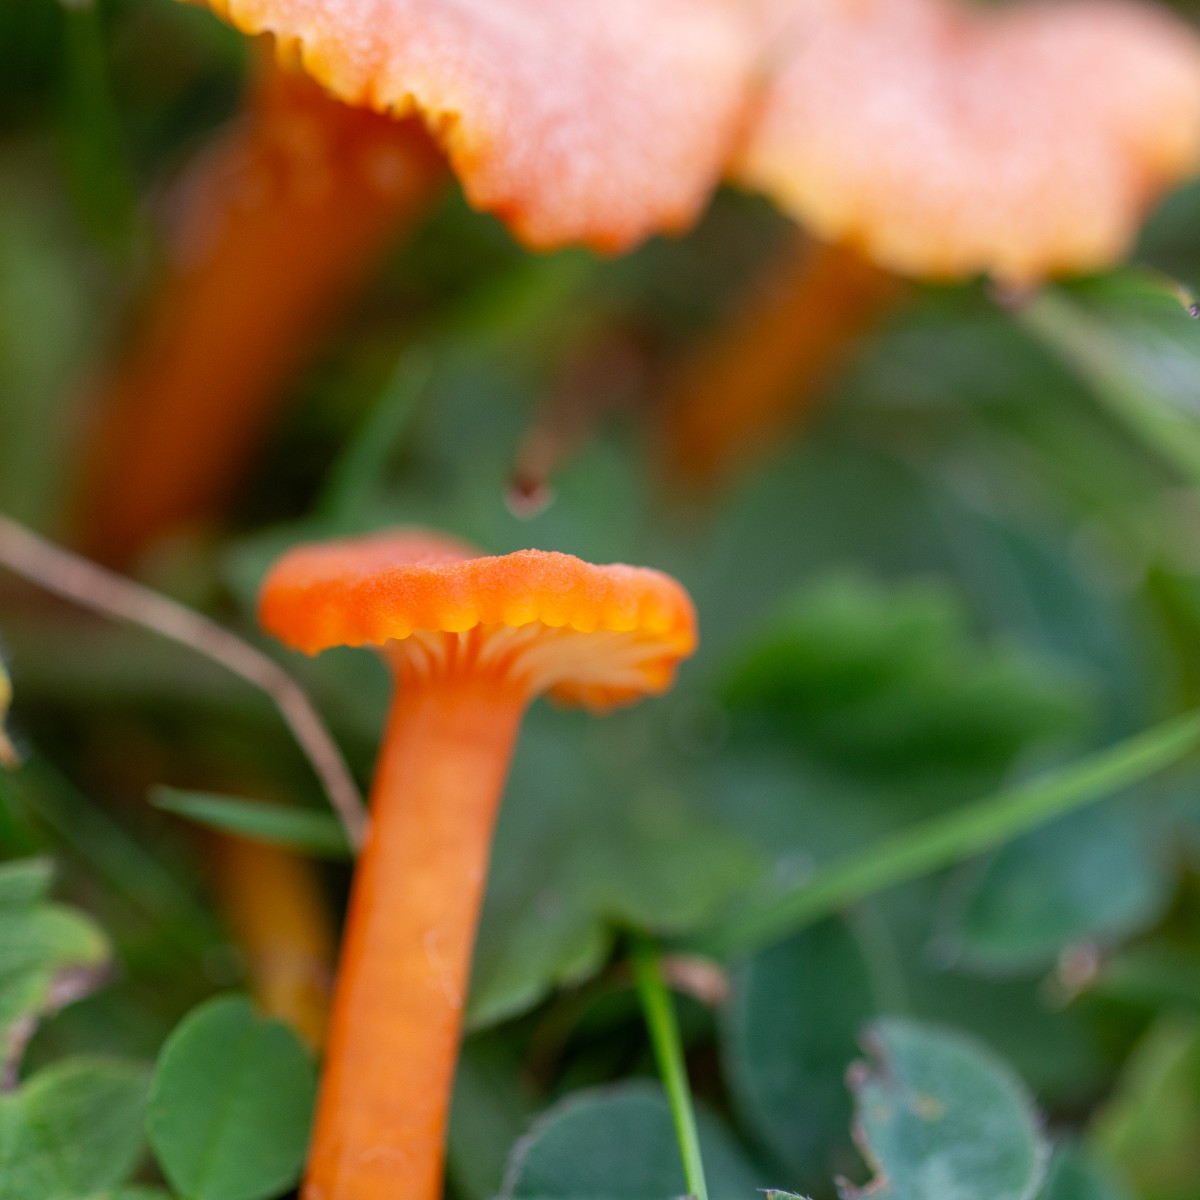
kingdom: Fungi
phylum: Basidiomycota
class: Agaricomycetes
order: Agaricales
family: Hygrophoraceae
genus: Hygrocybe
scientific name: Hygrocybe cantharellus
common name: kantarel-vokshat
